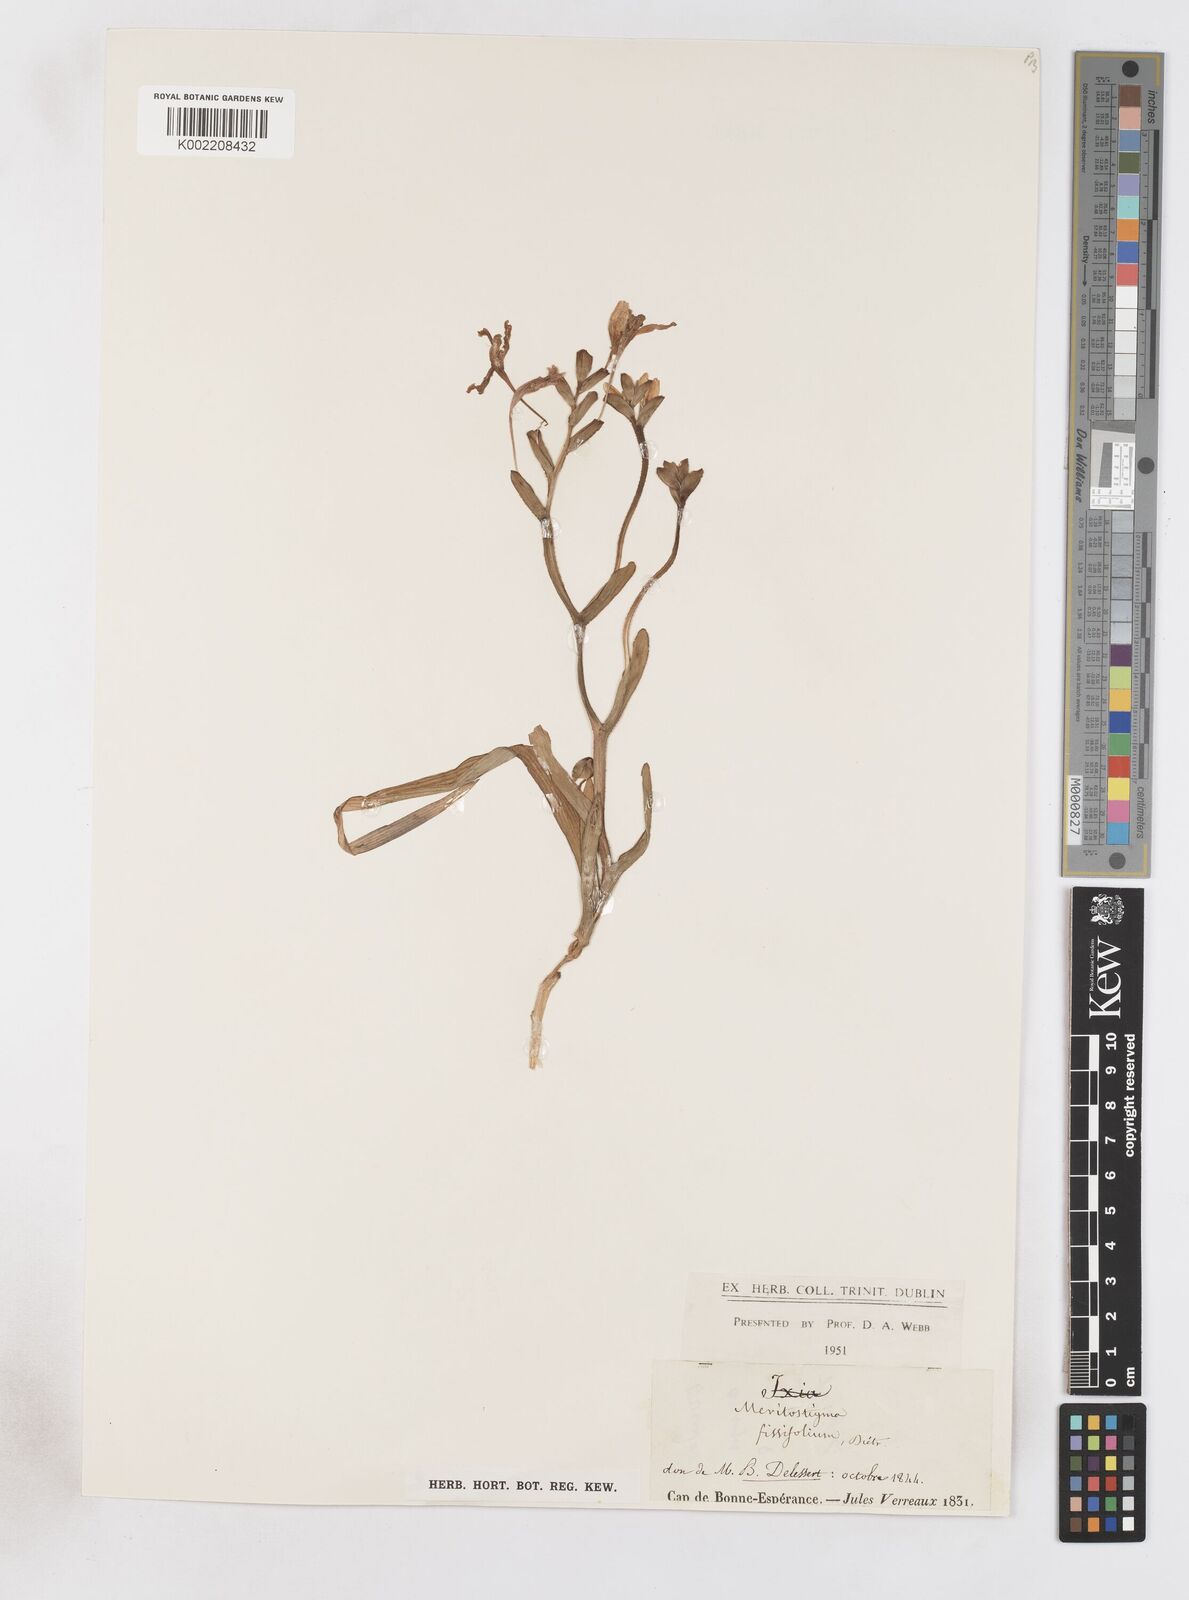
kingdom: Plantae
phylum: Tracheophyta
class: Liliopsida
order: Asparagales
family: Iridaceae
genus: Lapeirousia
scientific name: Lapeirousia fabricii
